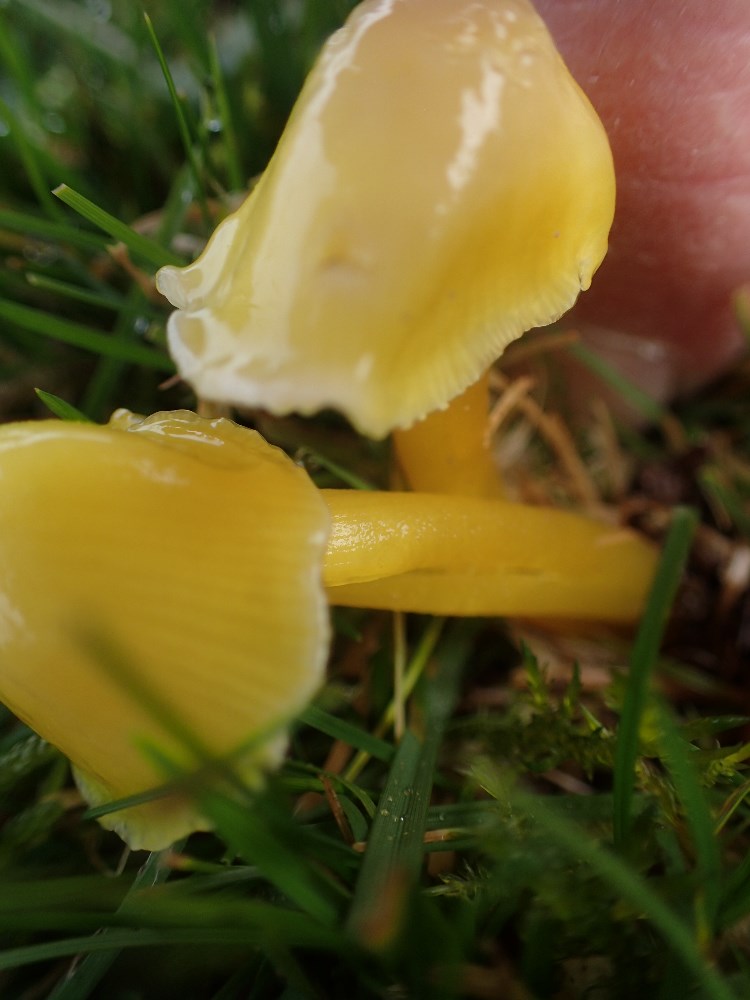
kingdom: Fungi
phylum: Basidiomycota
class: Agaricomycetes
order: Agaricales
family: Hygrophoraceae
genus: Hygrocybe
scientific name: Hygrocybe glutinipes
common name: slimstokket vokshat
